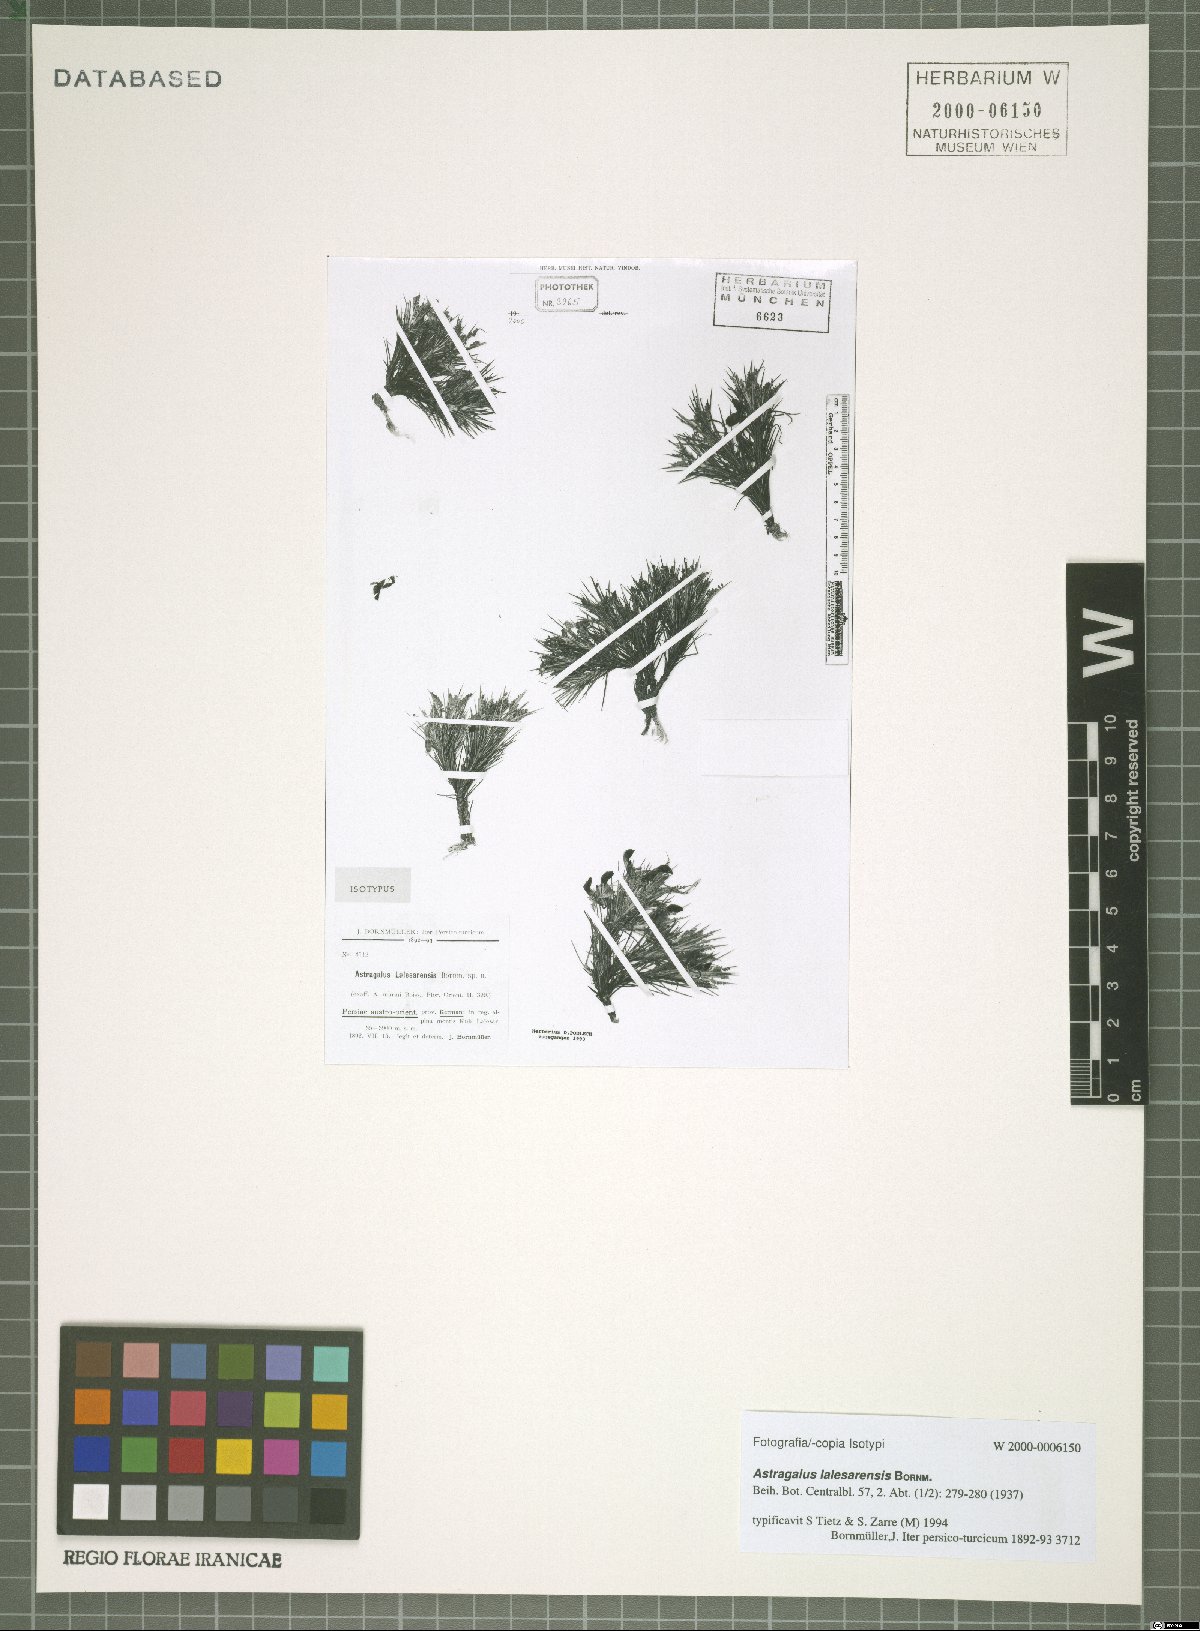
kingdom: Plantae
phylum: Tracheophyta
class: Magnoliopsida
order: Fabales
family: Fabaceae
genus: Astragalus
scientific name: Astragalus lalesarensis
